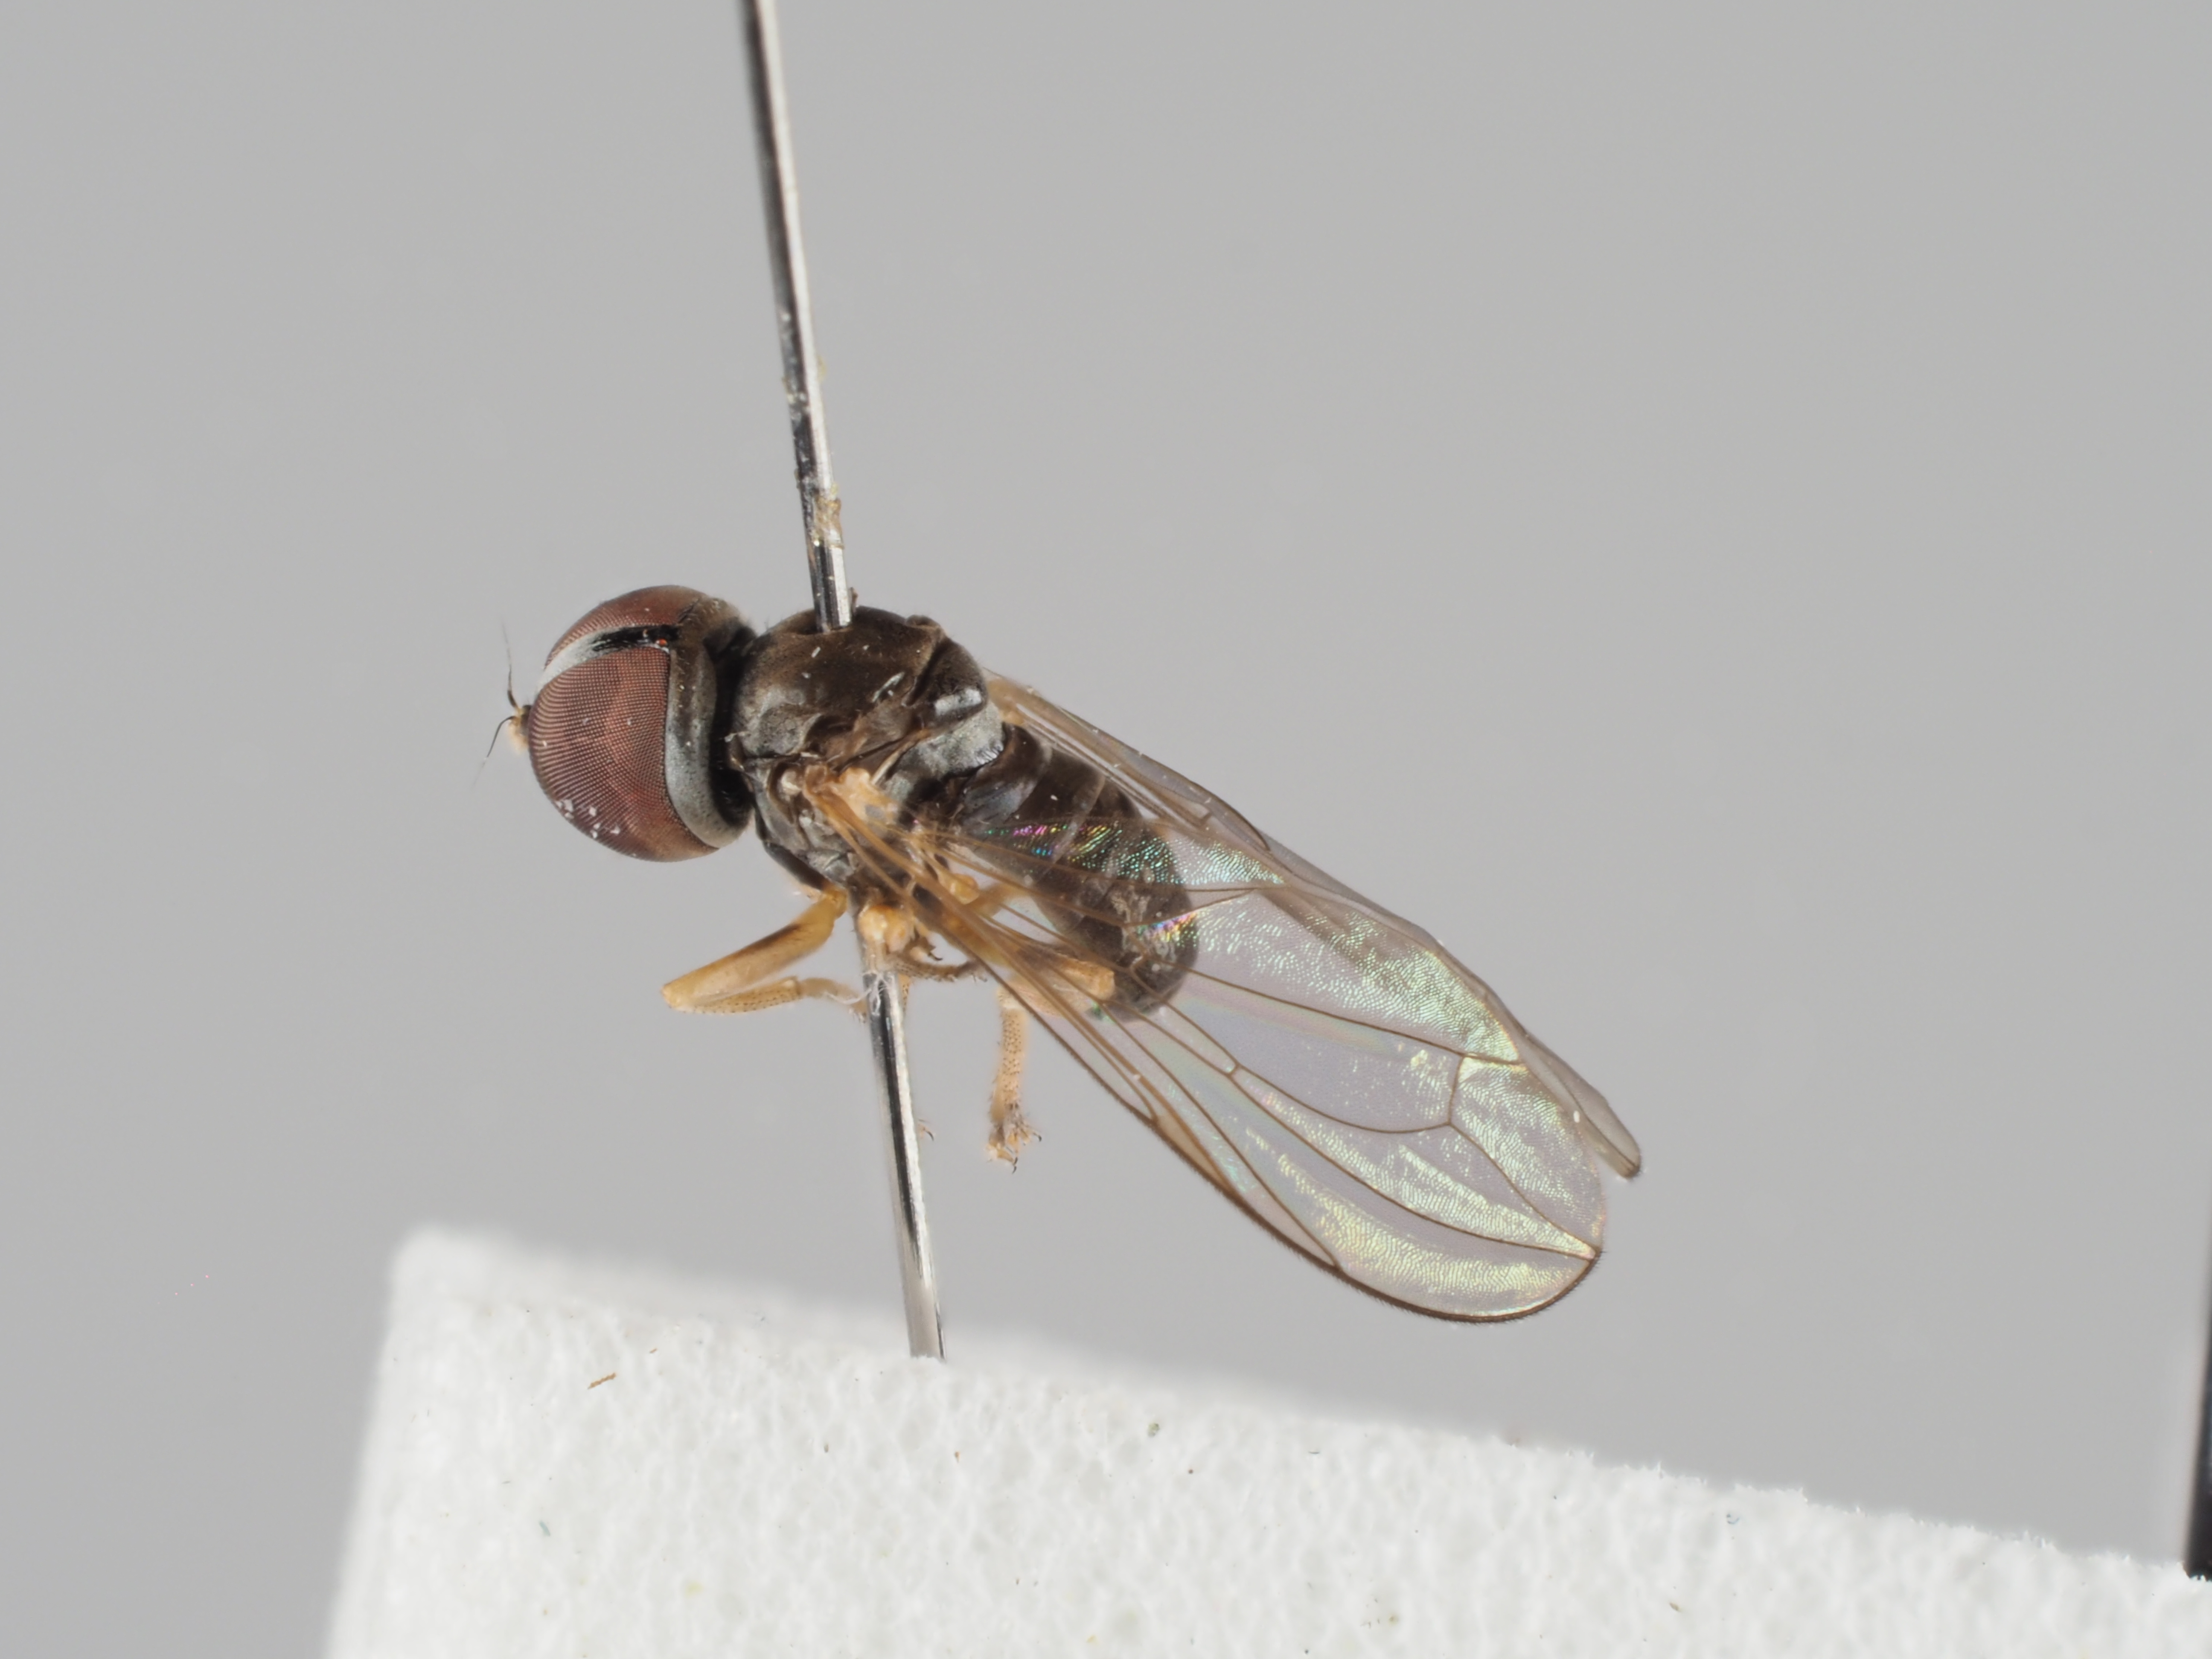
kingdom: Animalia
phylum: Arthropoda
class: Insecta
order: Diptera
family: Pipunculidae
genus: Semicephalops
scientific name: Semicephalops varipes
